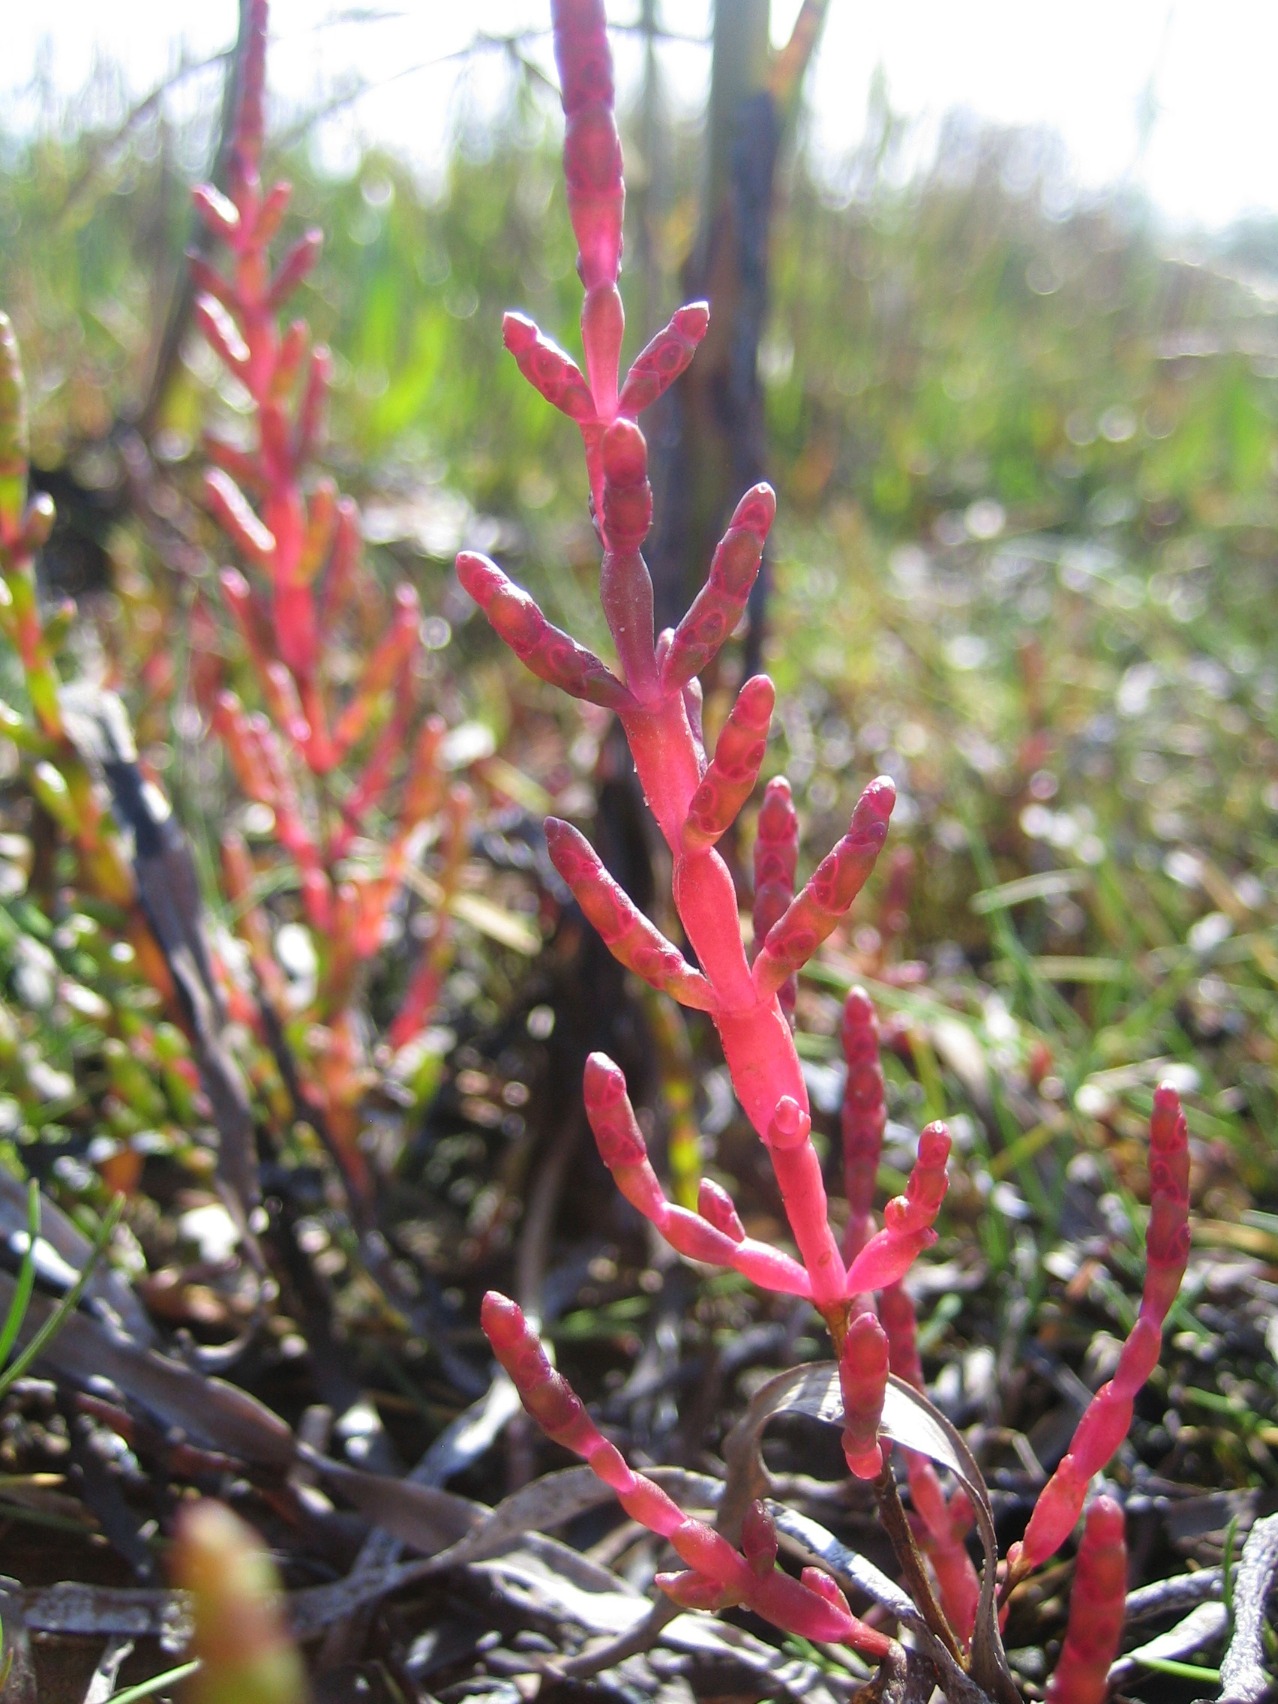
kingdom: Plantae
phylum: Tracheophyta
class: Magnoliopsida
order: Caryophyllales
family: Amaranthaceae
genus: Salicornia
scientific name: Salicornia europaea
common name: Almindelig salturt
